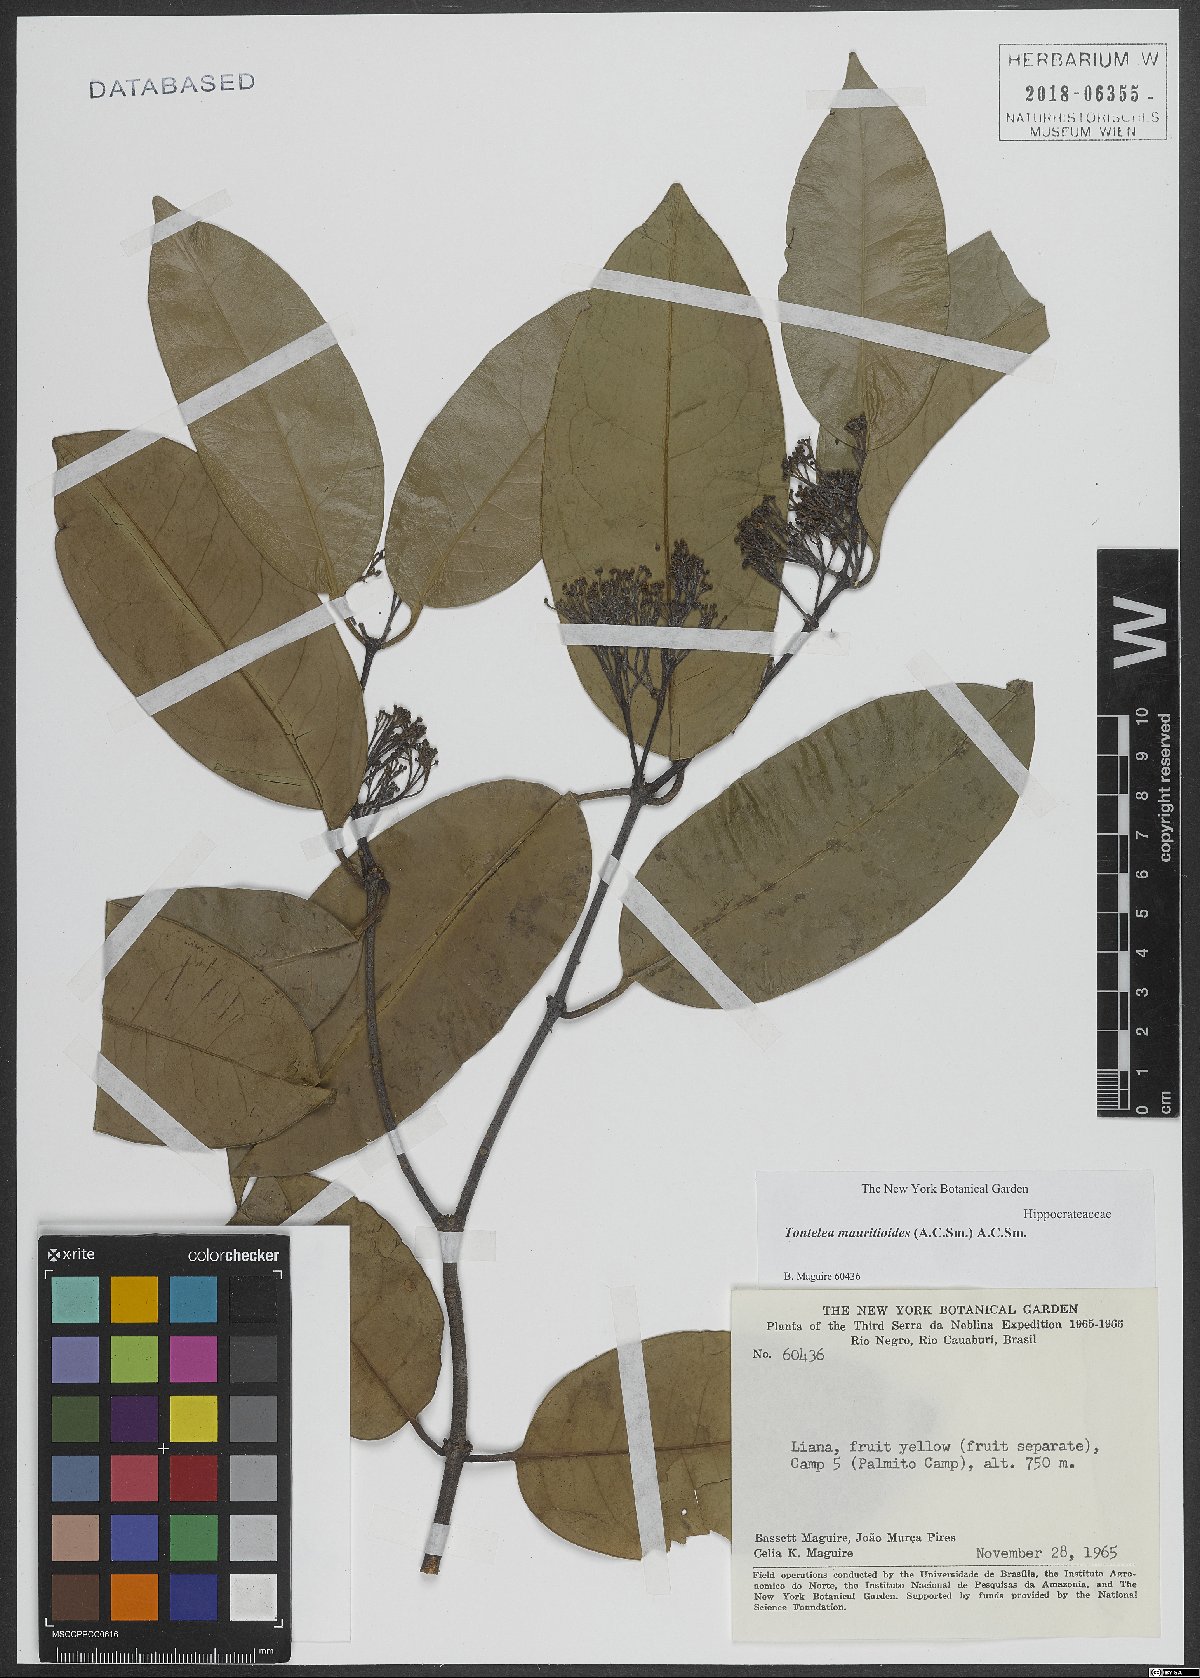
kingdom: Plantae
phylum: Tracheophyta
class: Magnoliopsida
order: Celastrales
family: Celastraceae
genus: Tontelea
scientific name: Tontelea
